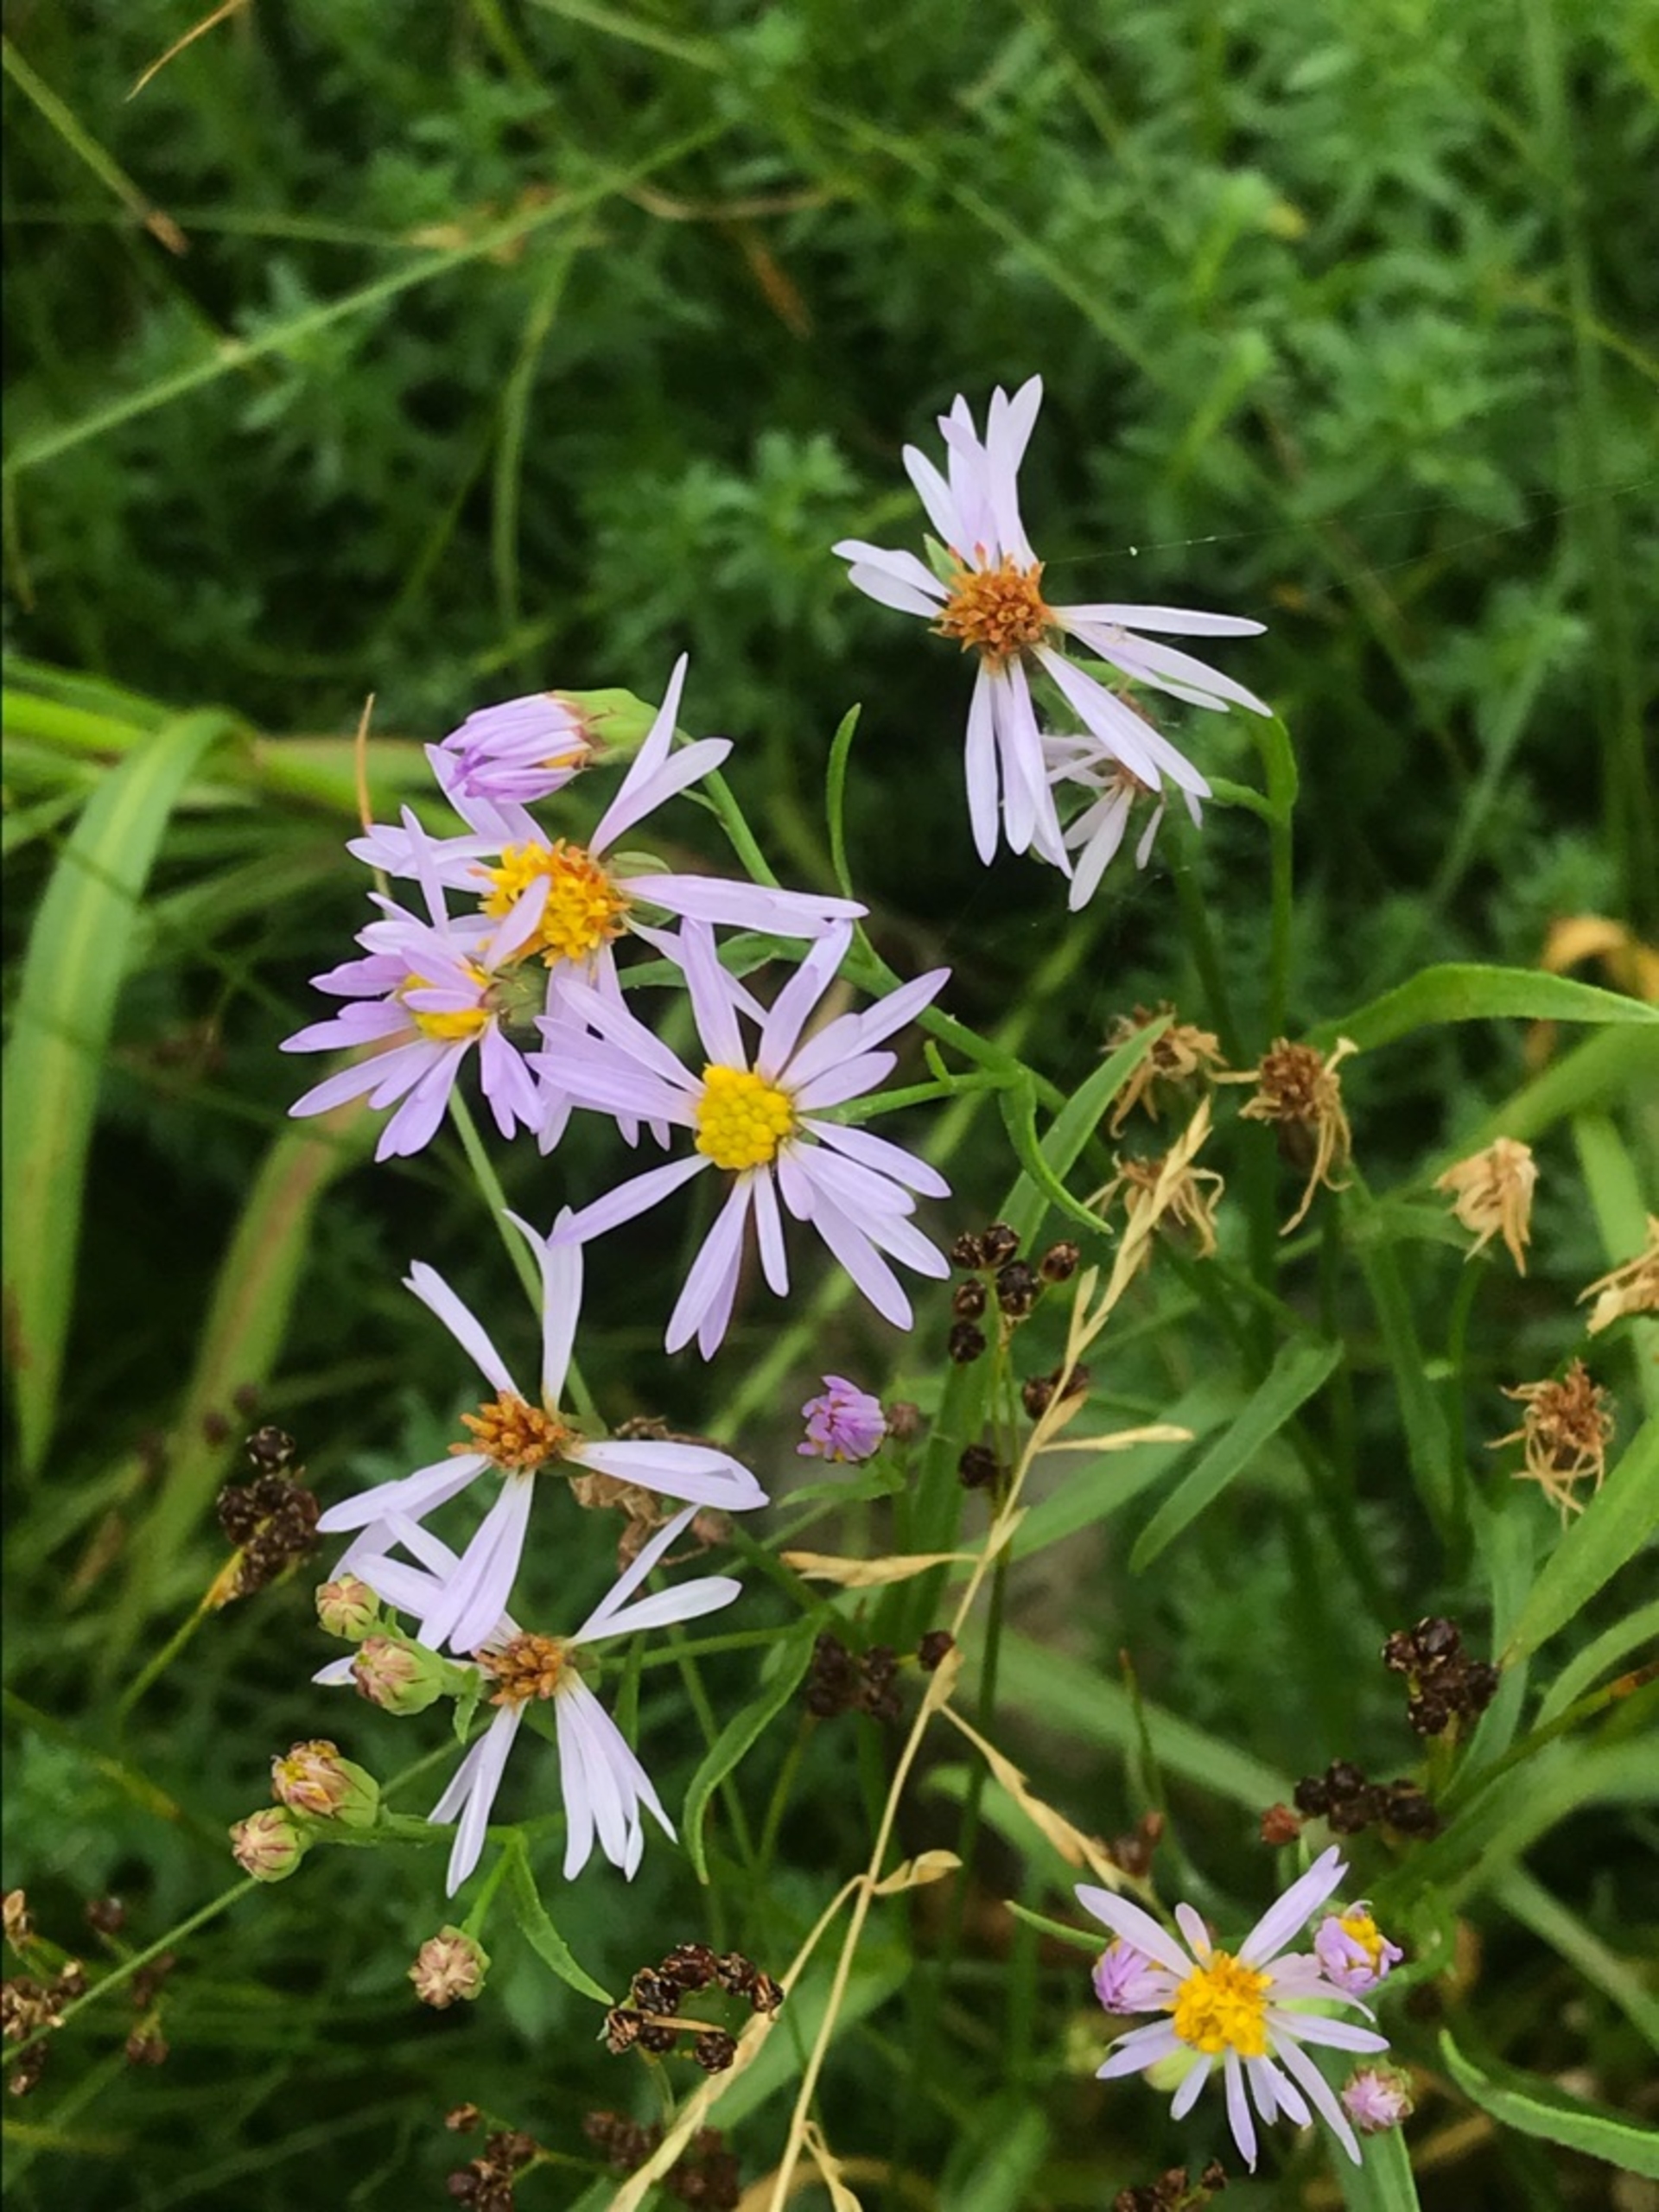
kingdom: Plantae
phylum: Tracheophyta
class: Magnoliopsida
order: Asterales
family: Asteraceae
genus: Tripolium
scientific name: Tripolium pannonicum
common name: Strandasters (underart)
